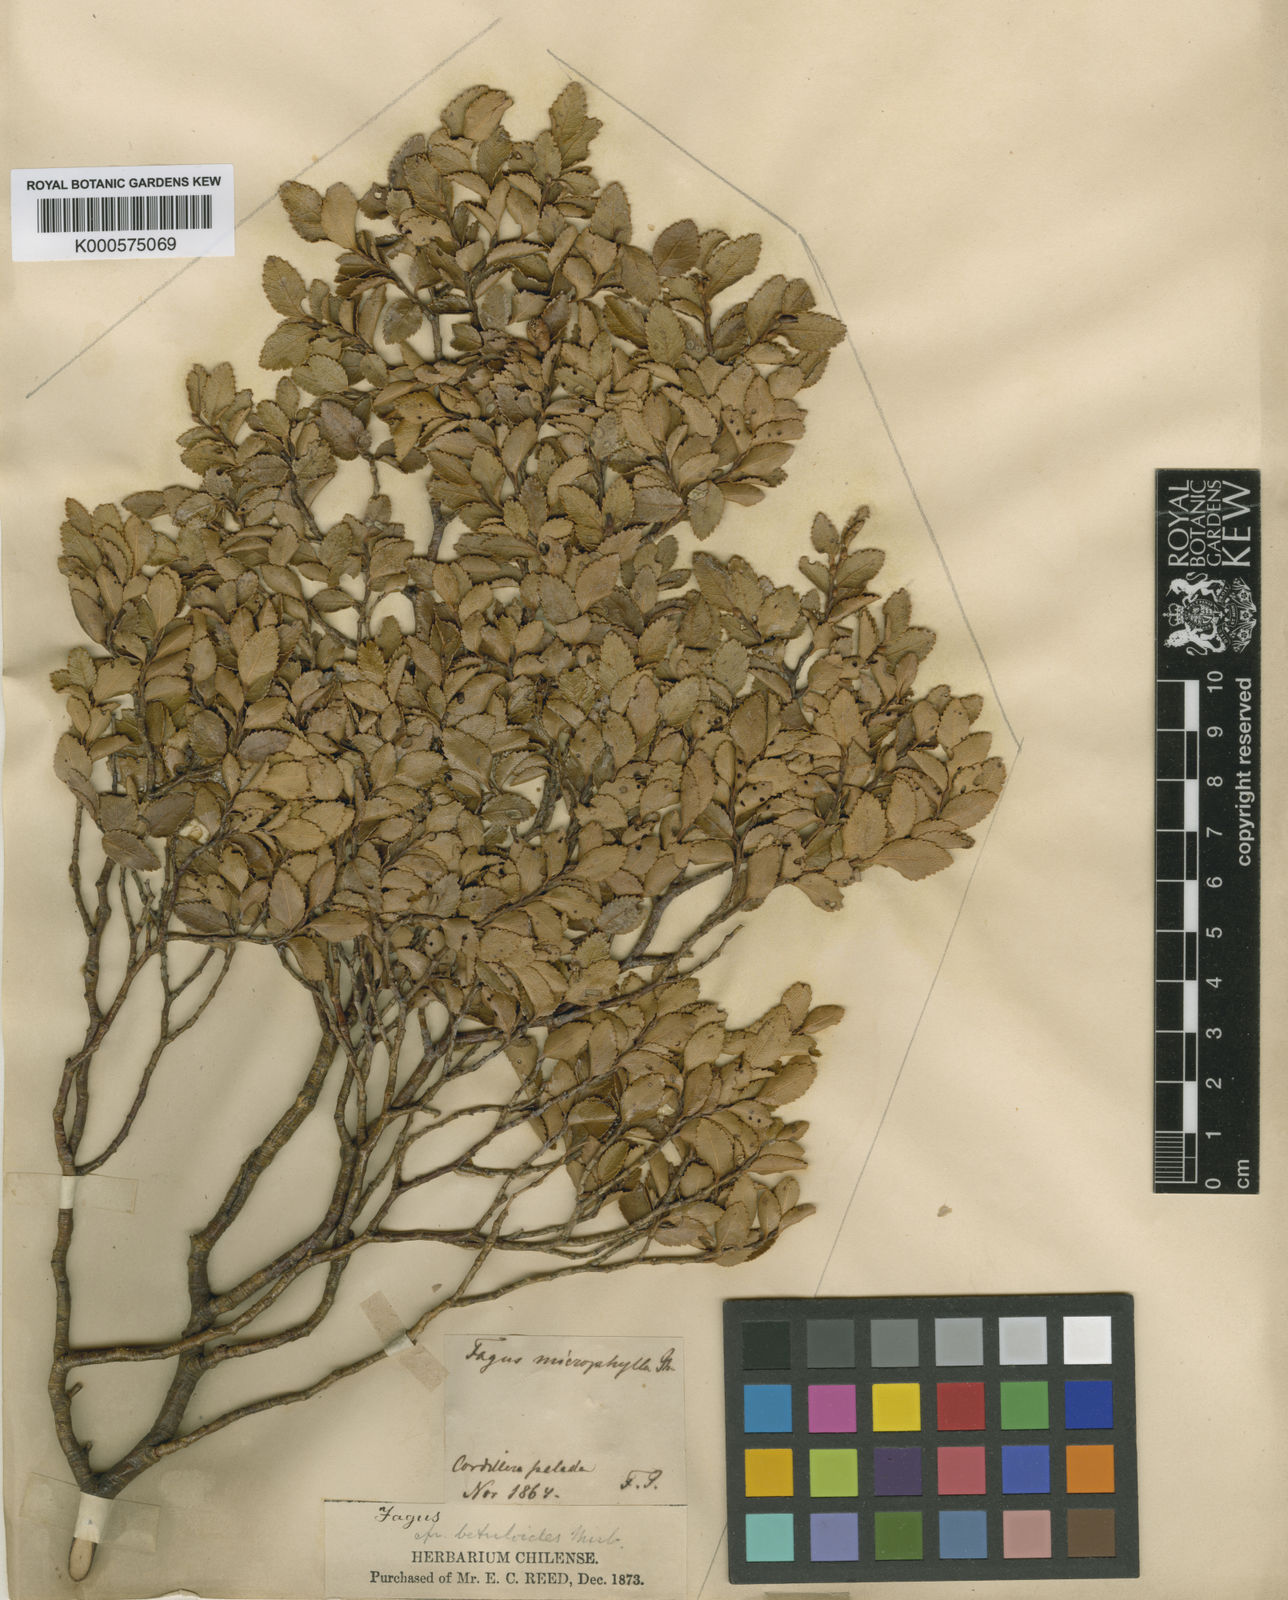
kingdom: Plantae
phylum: Tracheophyta
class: Magnoliopsida
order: Fagales
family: Nothofagaceae
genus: Nothofagus
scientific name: Nothofagus betuloides
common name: Magellan's beech
